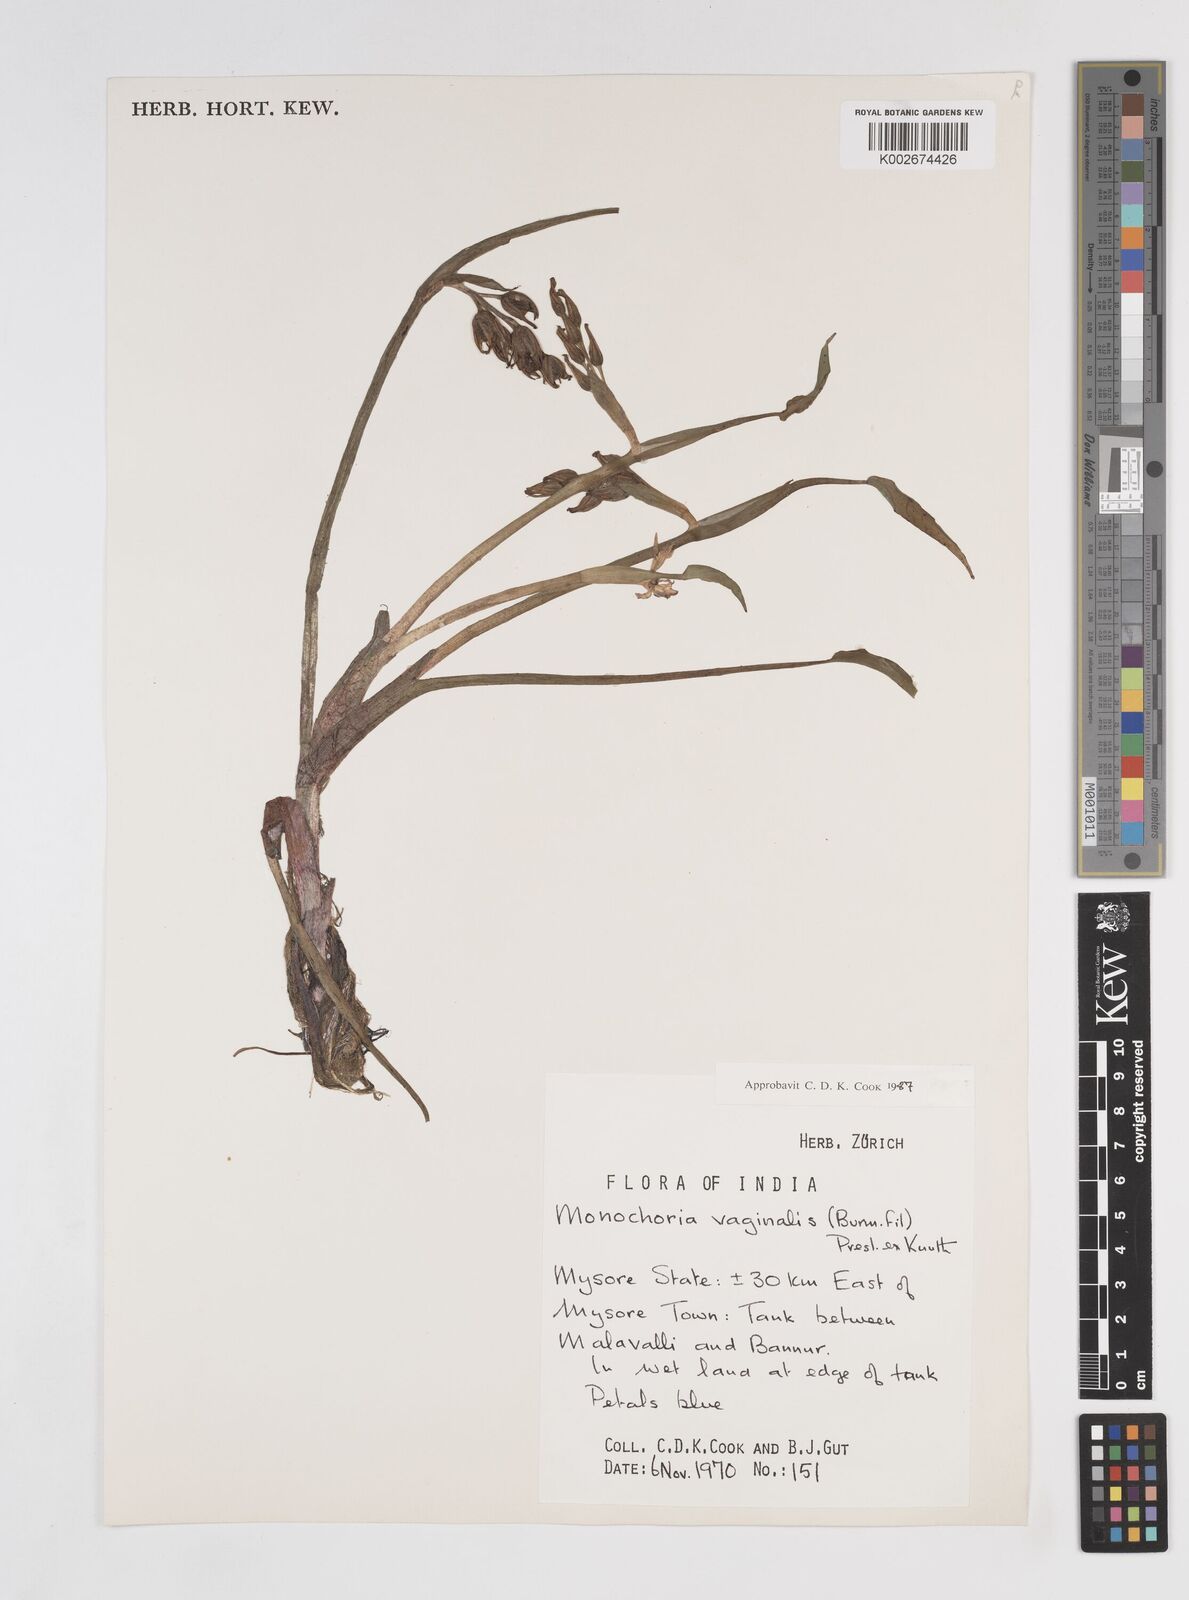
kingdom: Plantae
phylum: Tracheophyta
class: Liliopsida
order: Commelinales
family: Pontederiaceae
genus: Pontederia
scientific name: Pontederia vaginalis
